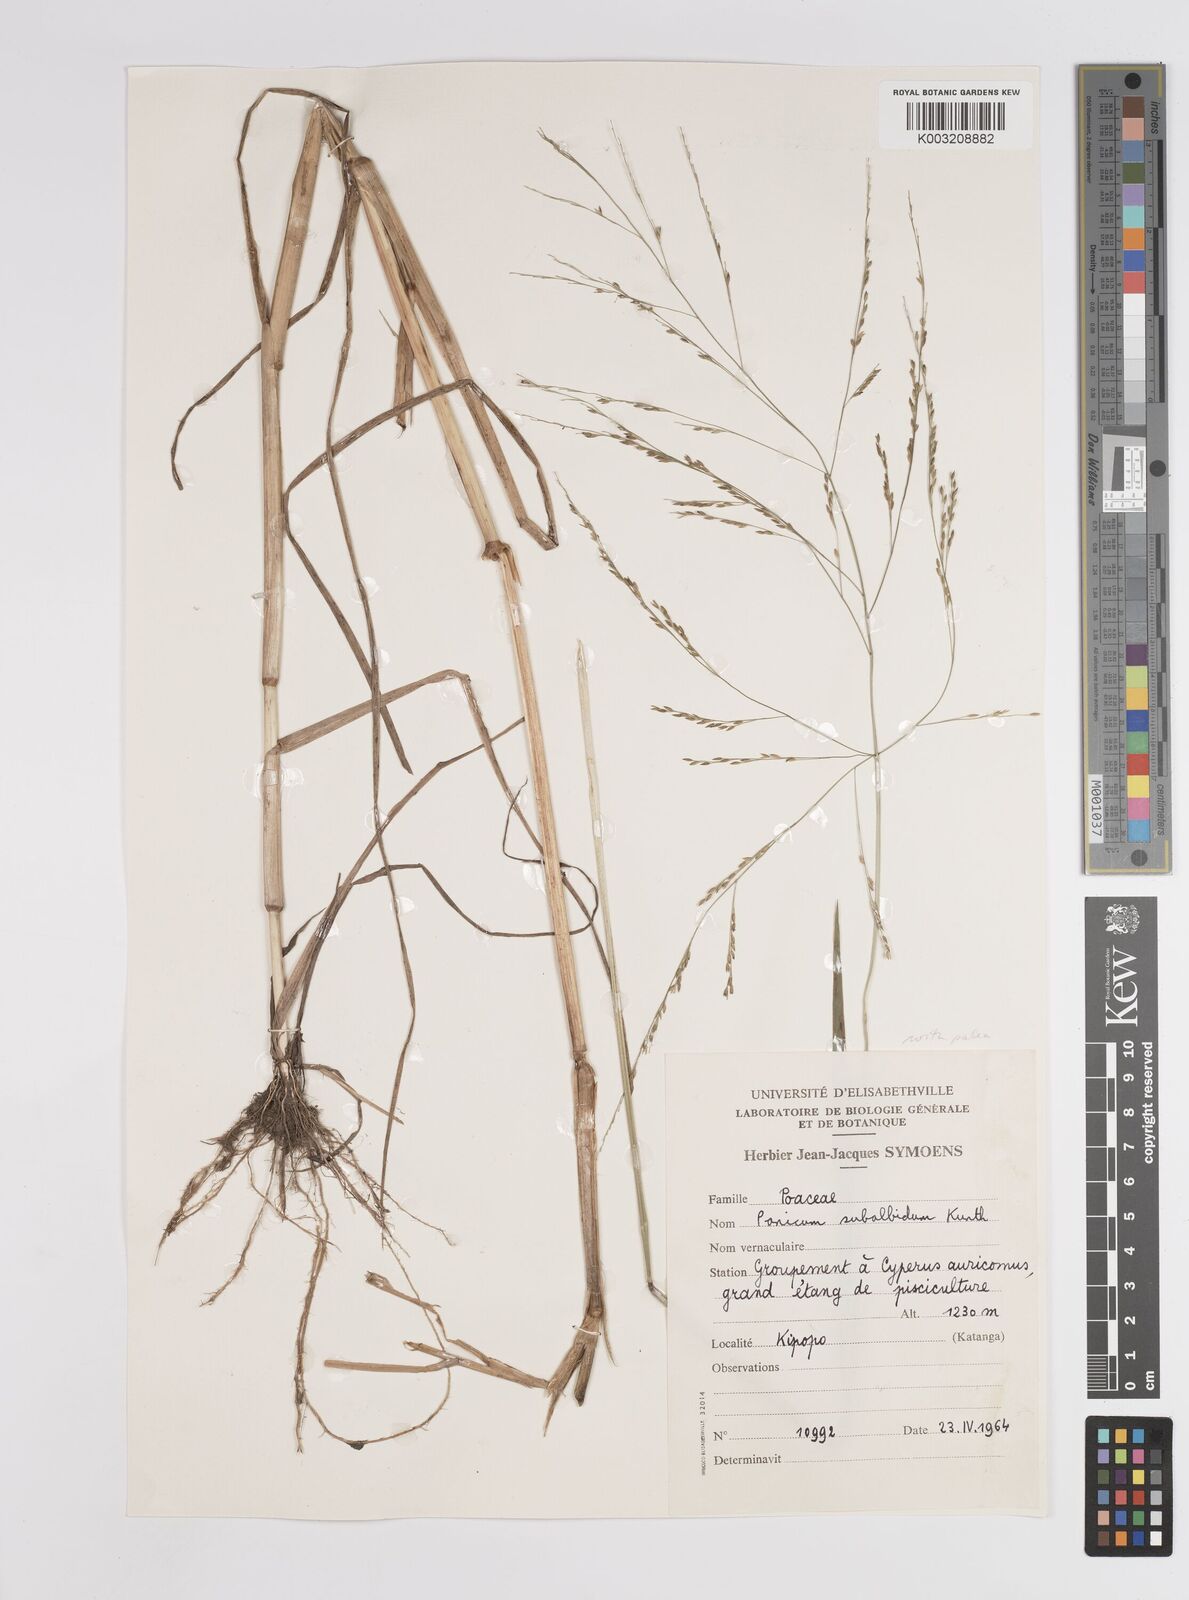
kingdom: Plantae
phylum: Tracheophyta
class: Liliopsida
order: Poales
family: Poaceae
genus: Panicum
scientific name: Panicum subalbidum
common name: Elbow buffalo grass
